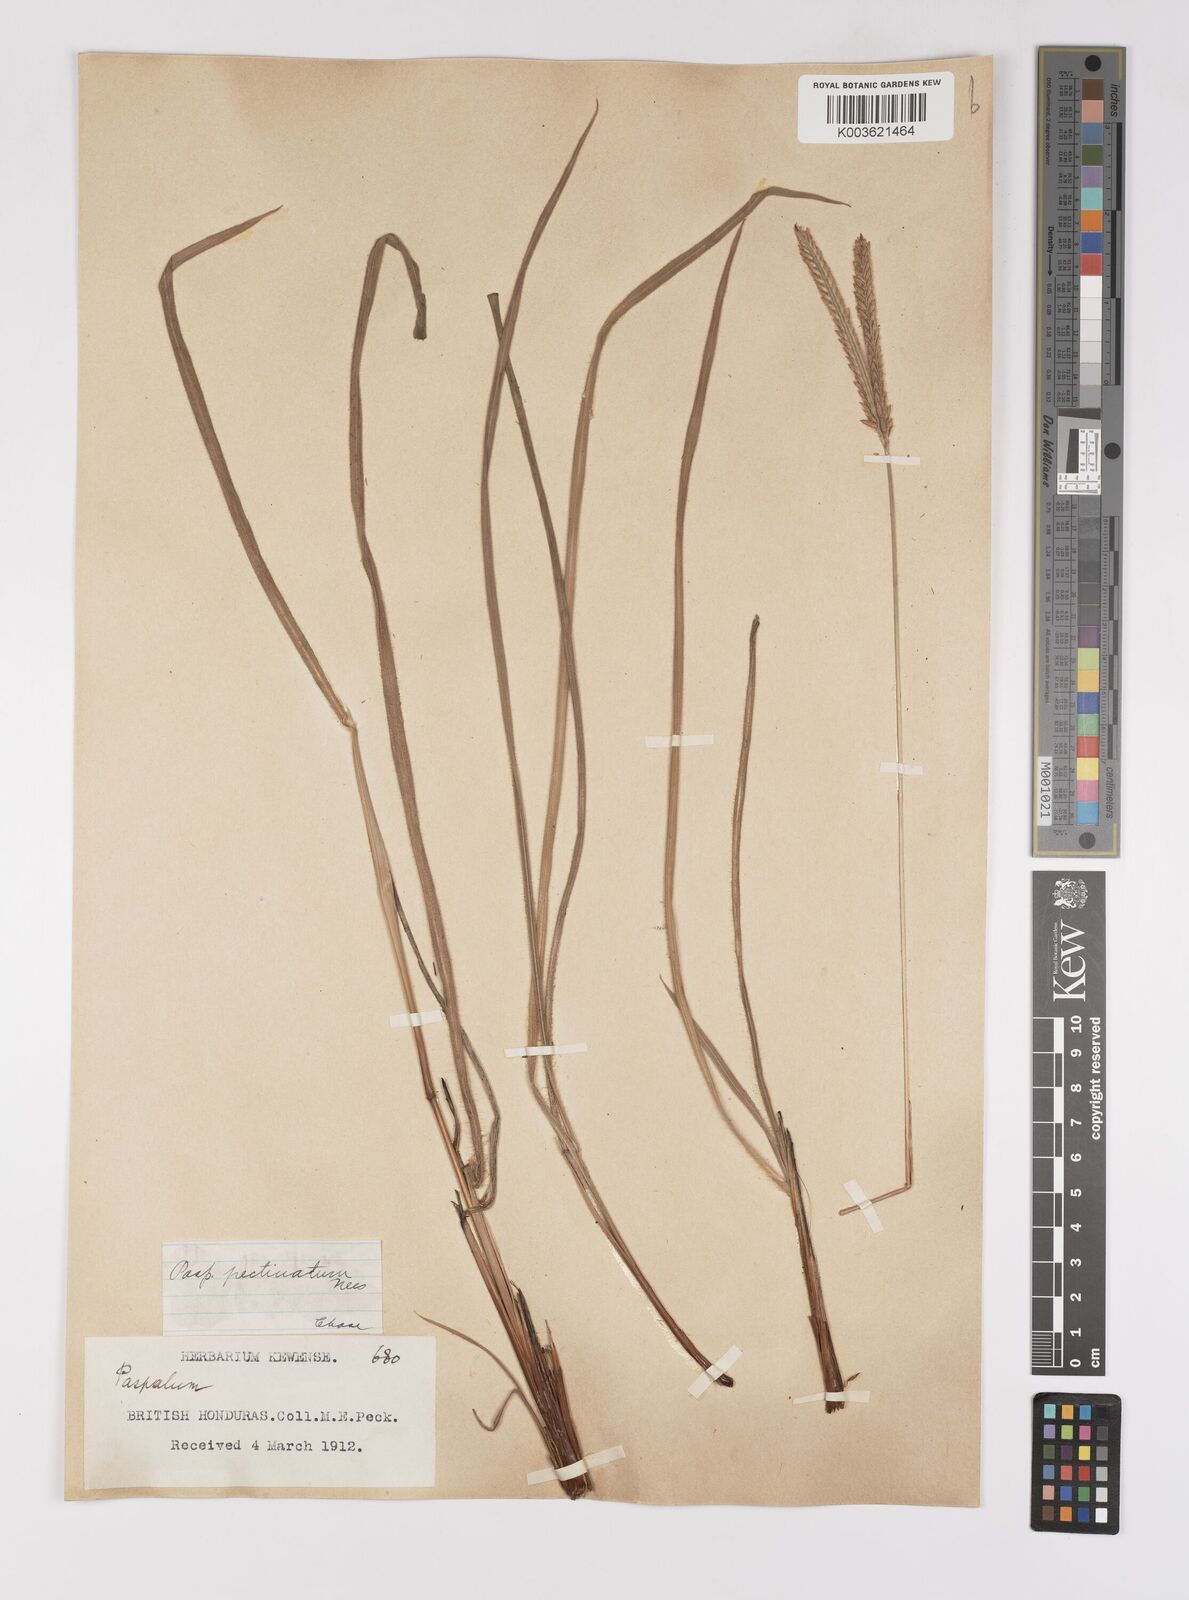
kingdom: Plantae
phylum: Tracheophyta
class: Liliopsida
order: Poales
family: Poaceae
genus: Paspalum
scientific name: Paspalum pectinatum
